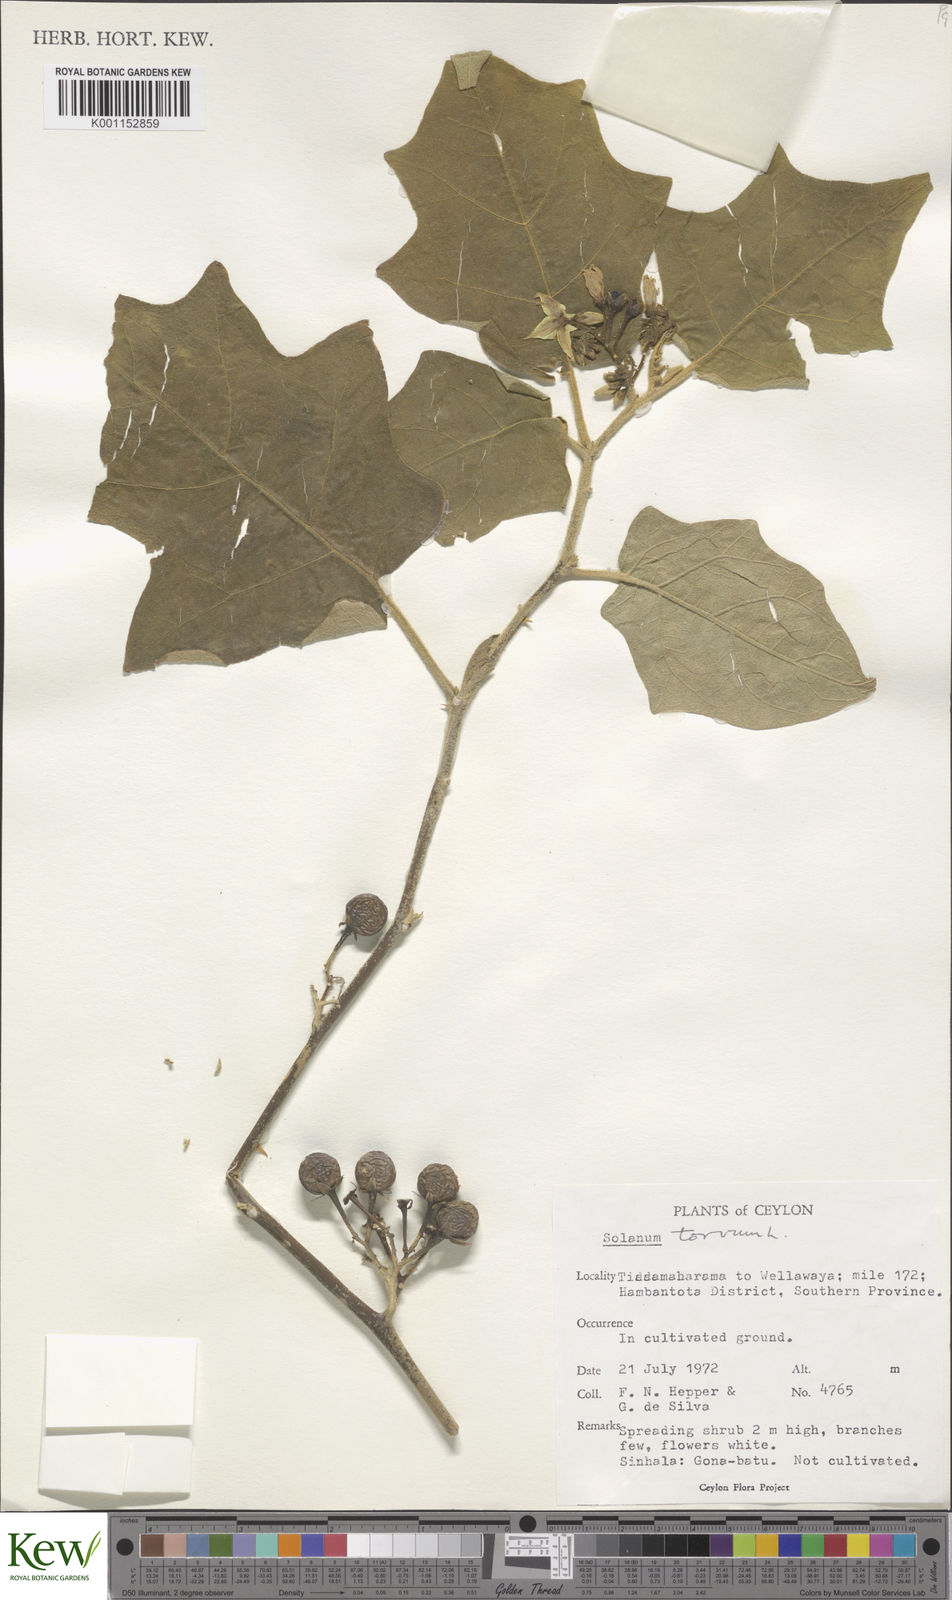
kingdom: Plantae
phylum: Tracheophyta
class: Magnoliopsida
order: Solanales
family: Solanaceae
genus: Solanum
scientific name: Solanum torvum
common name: Turkey berry
